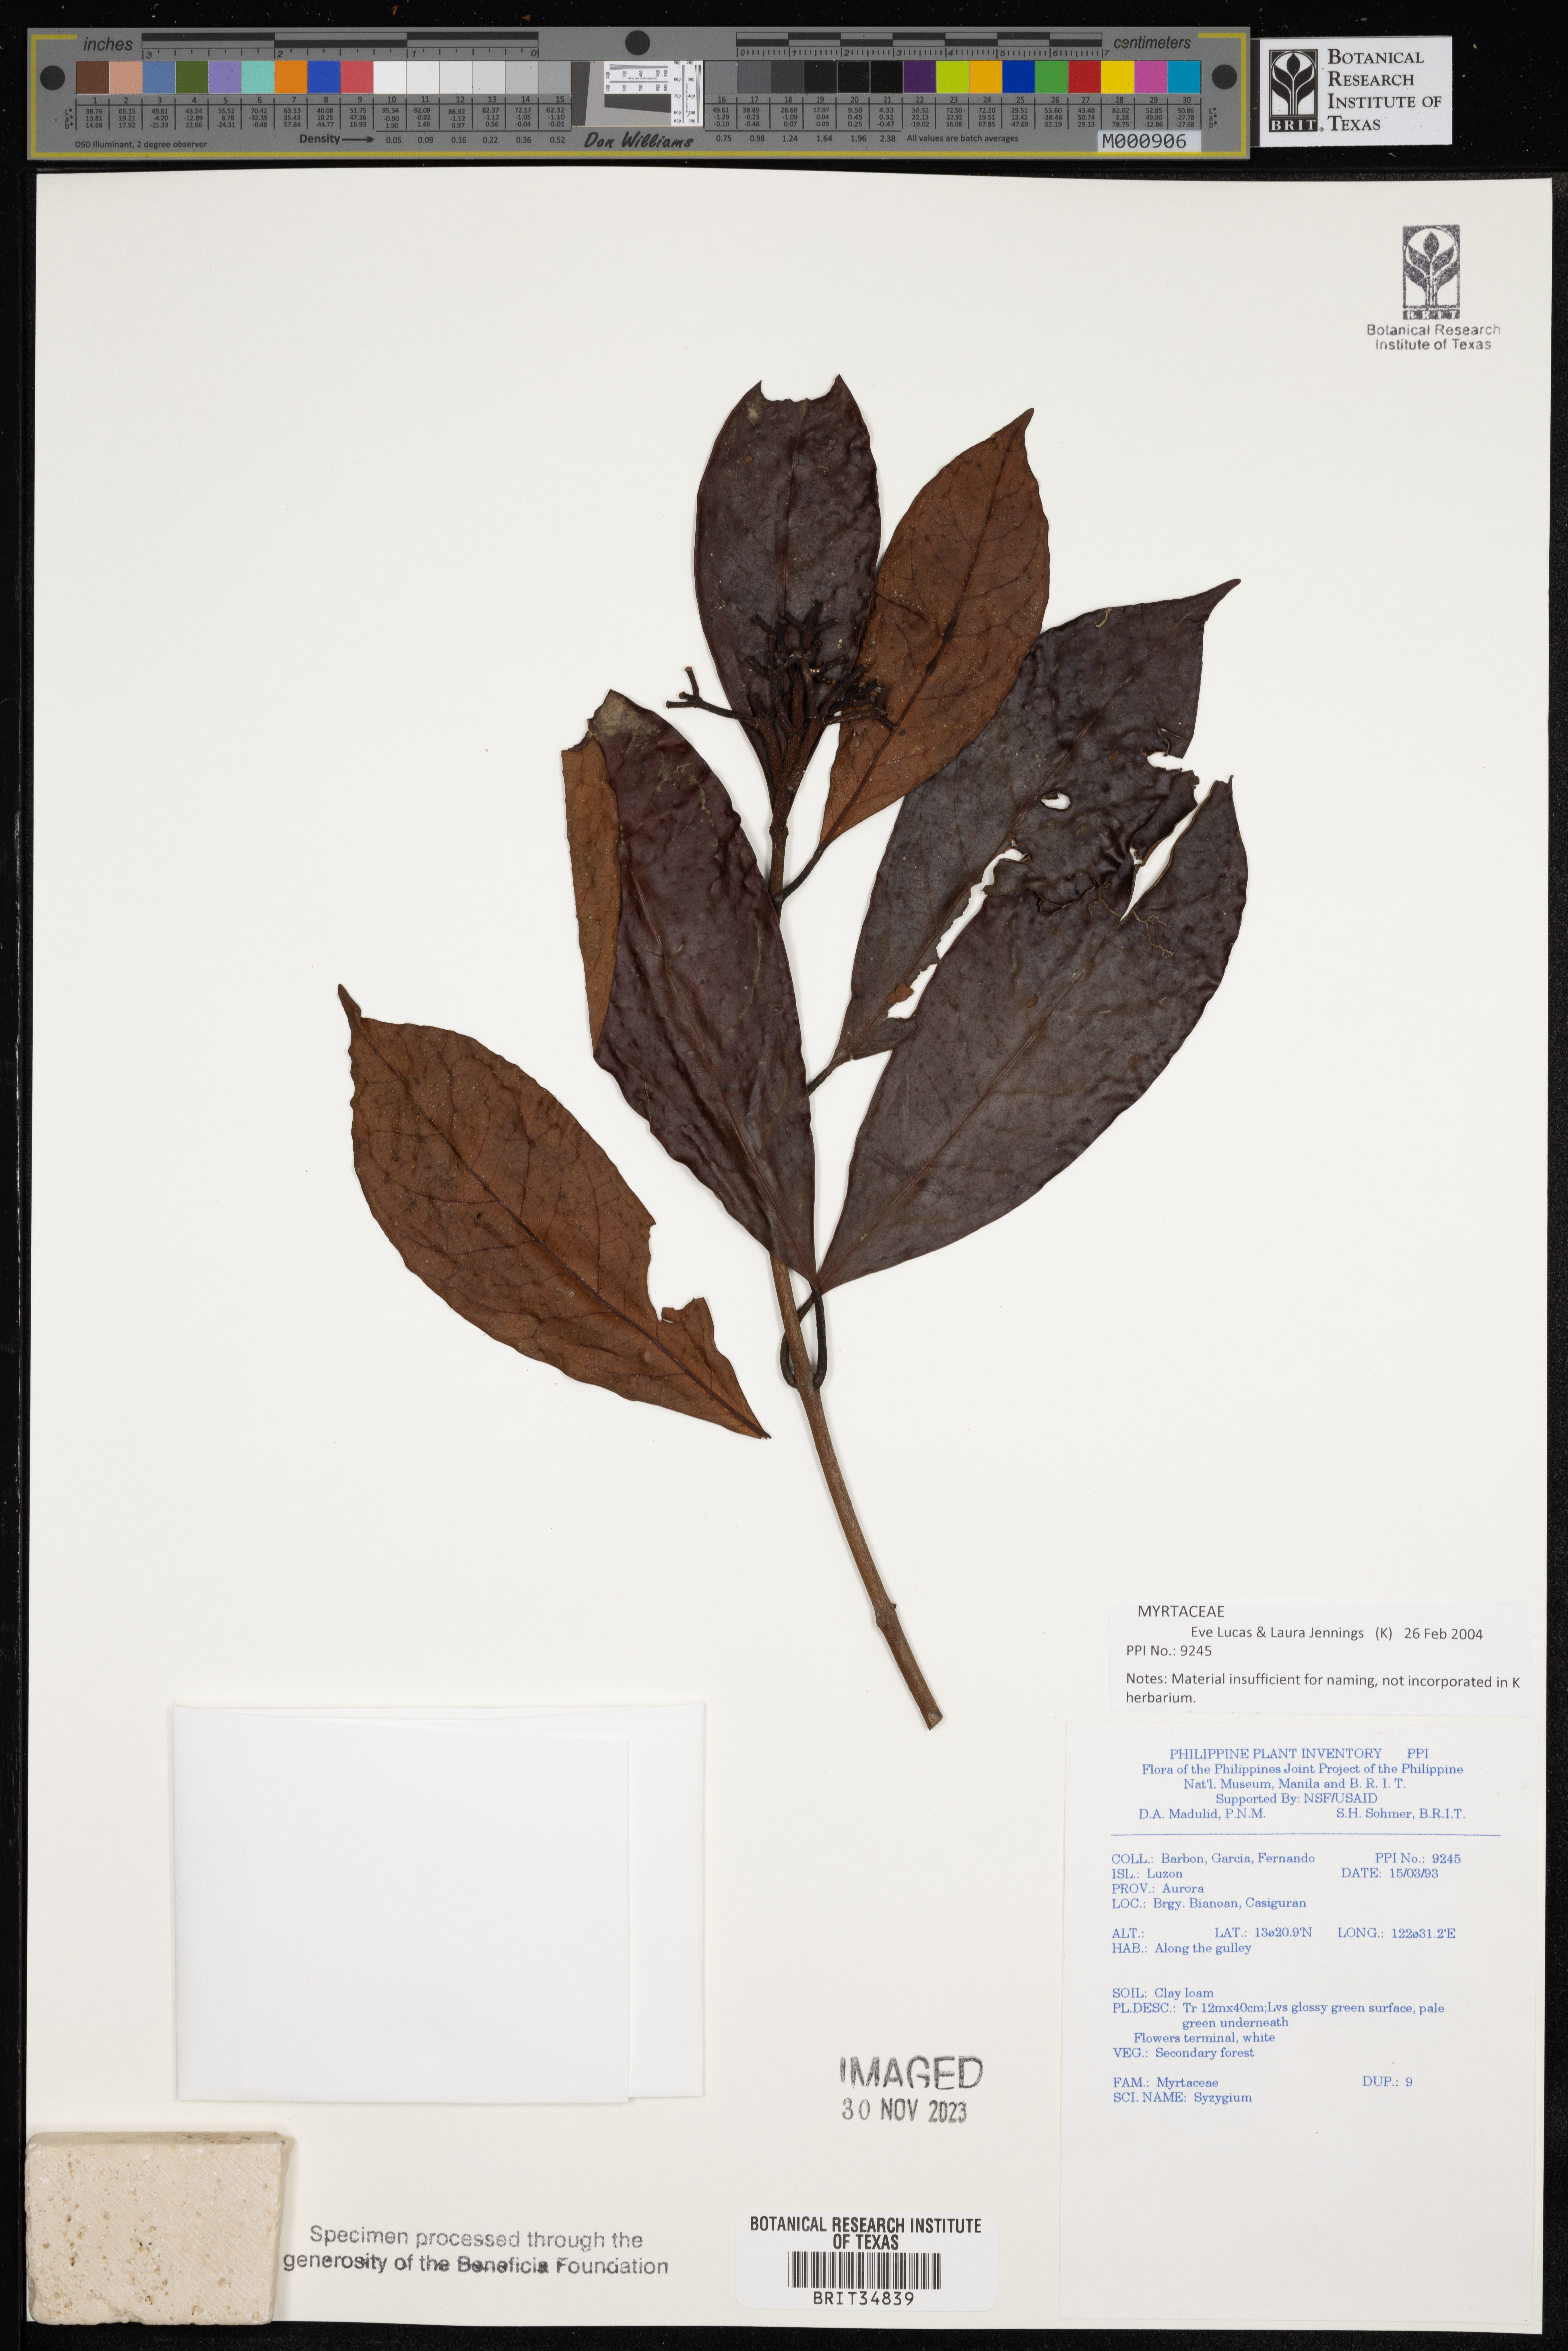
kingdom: Plantae
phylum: Tracheophyta
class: Magnoliopsida
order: Myrtales
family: Myrtaceae
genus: Syzygium
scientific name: Syzygium
